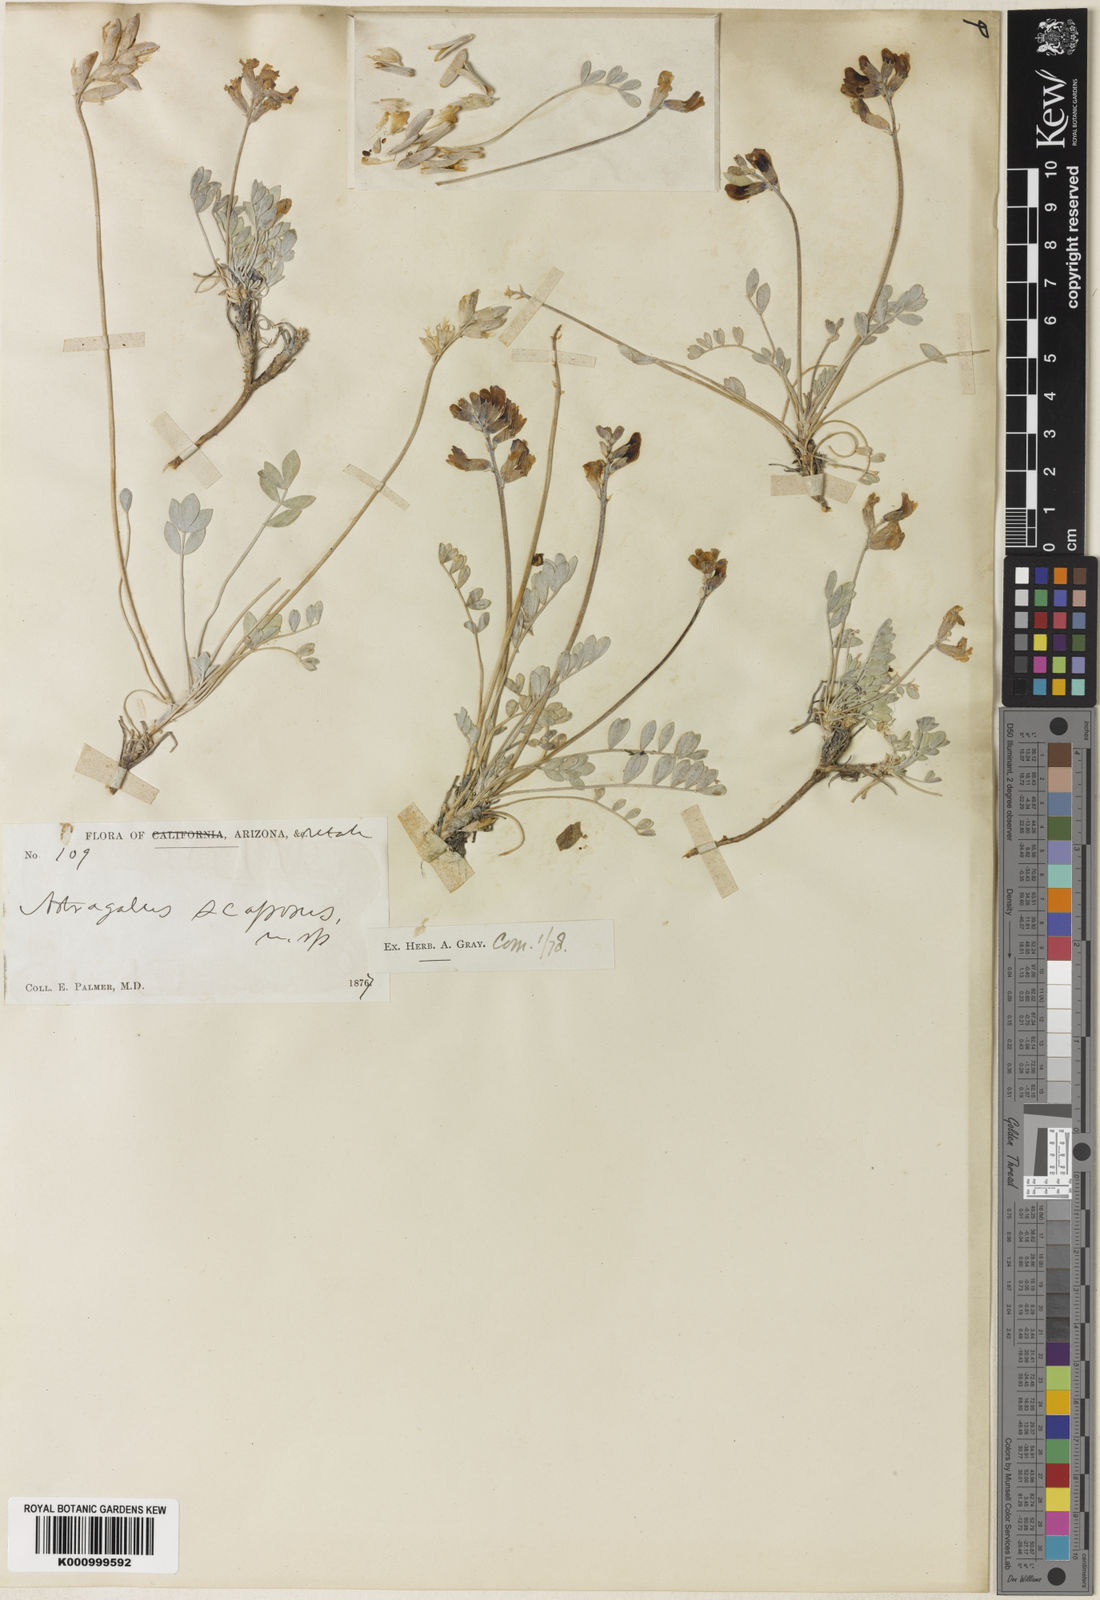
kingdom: Plantae
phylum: Tracheophyta
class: Magnoliopsida
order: Fabales
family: Fabaceae
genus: Astragalus
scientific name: Astragalus calycosus
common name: King's milkvetch
